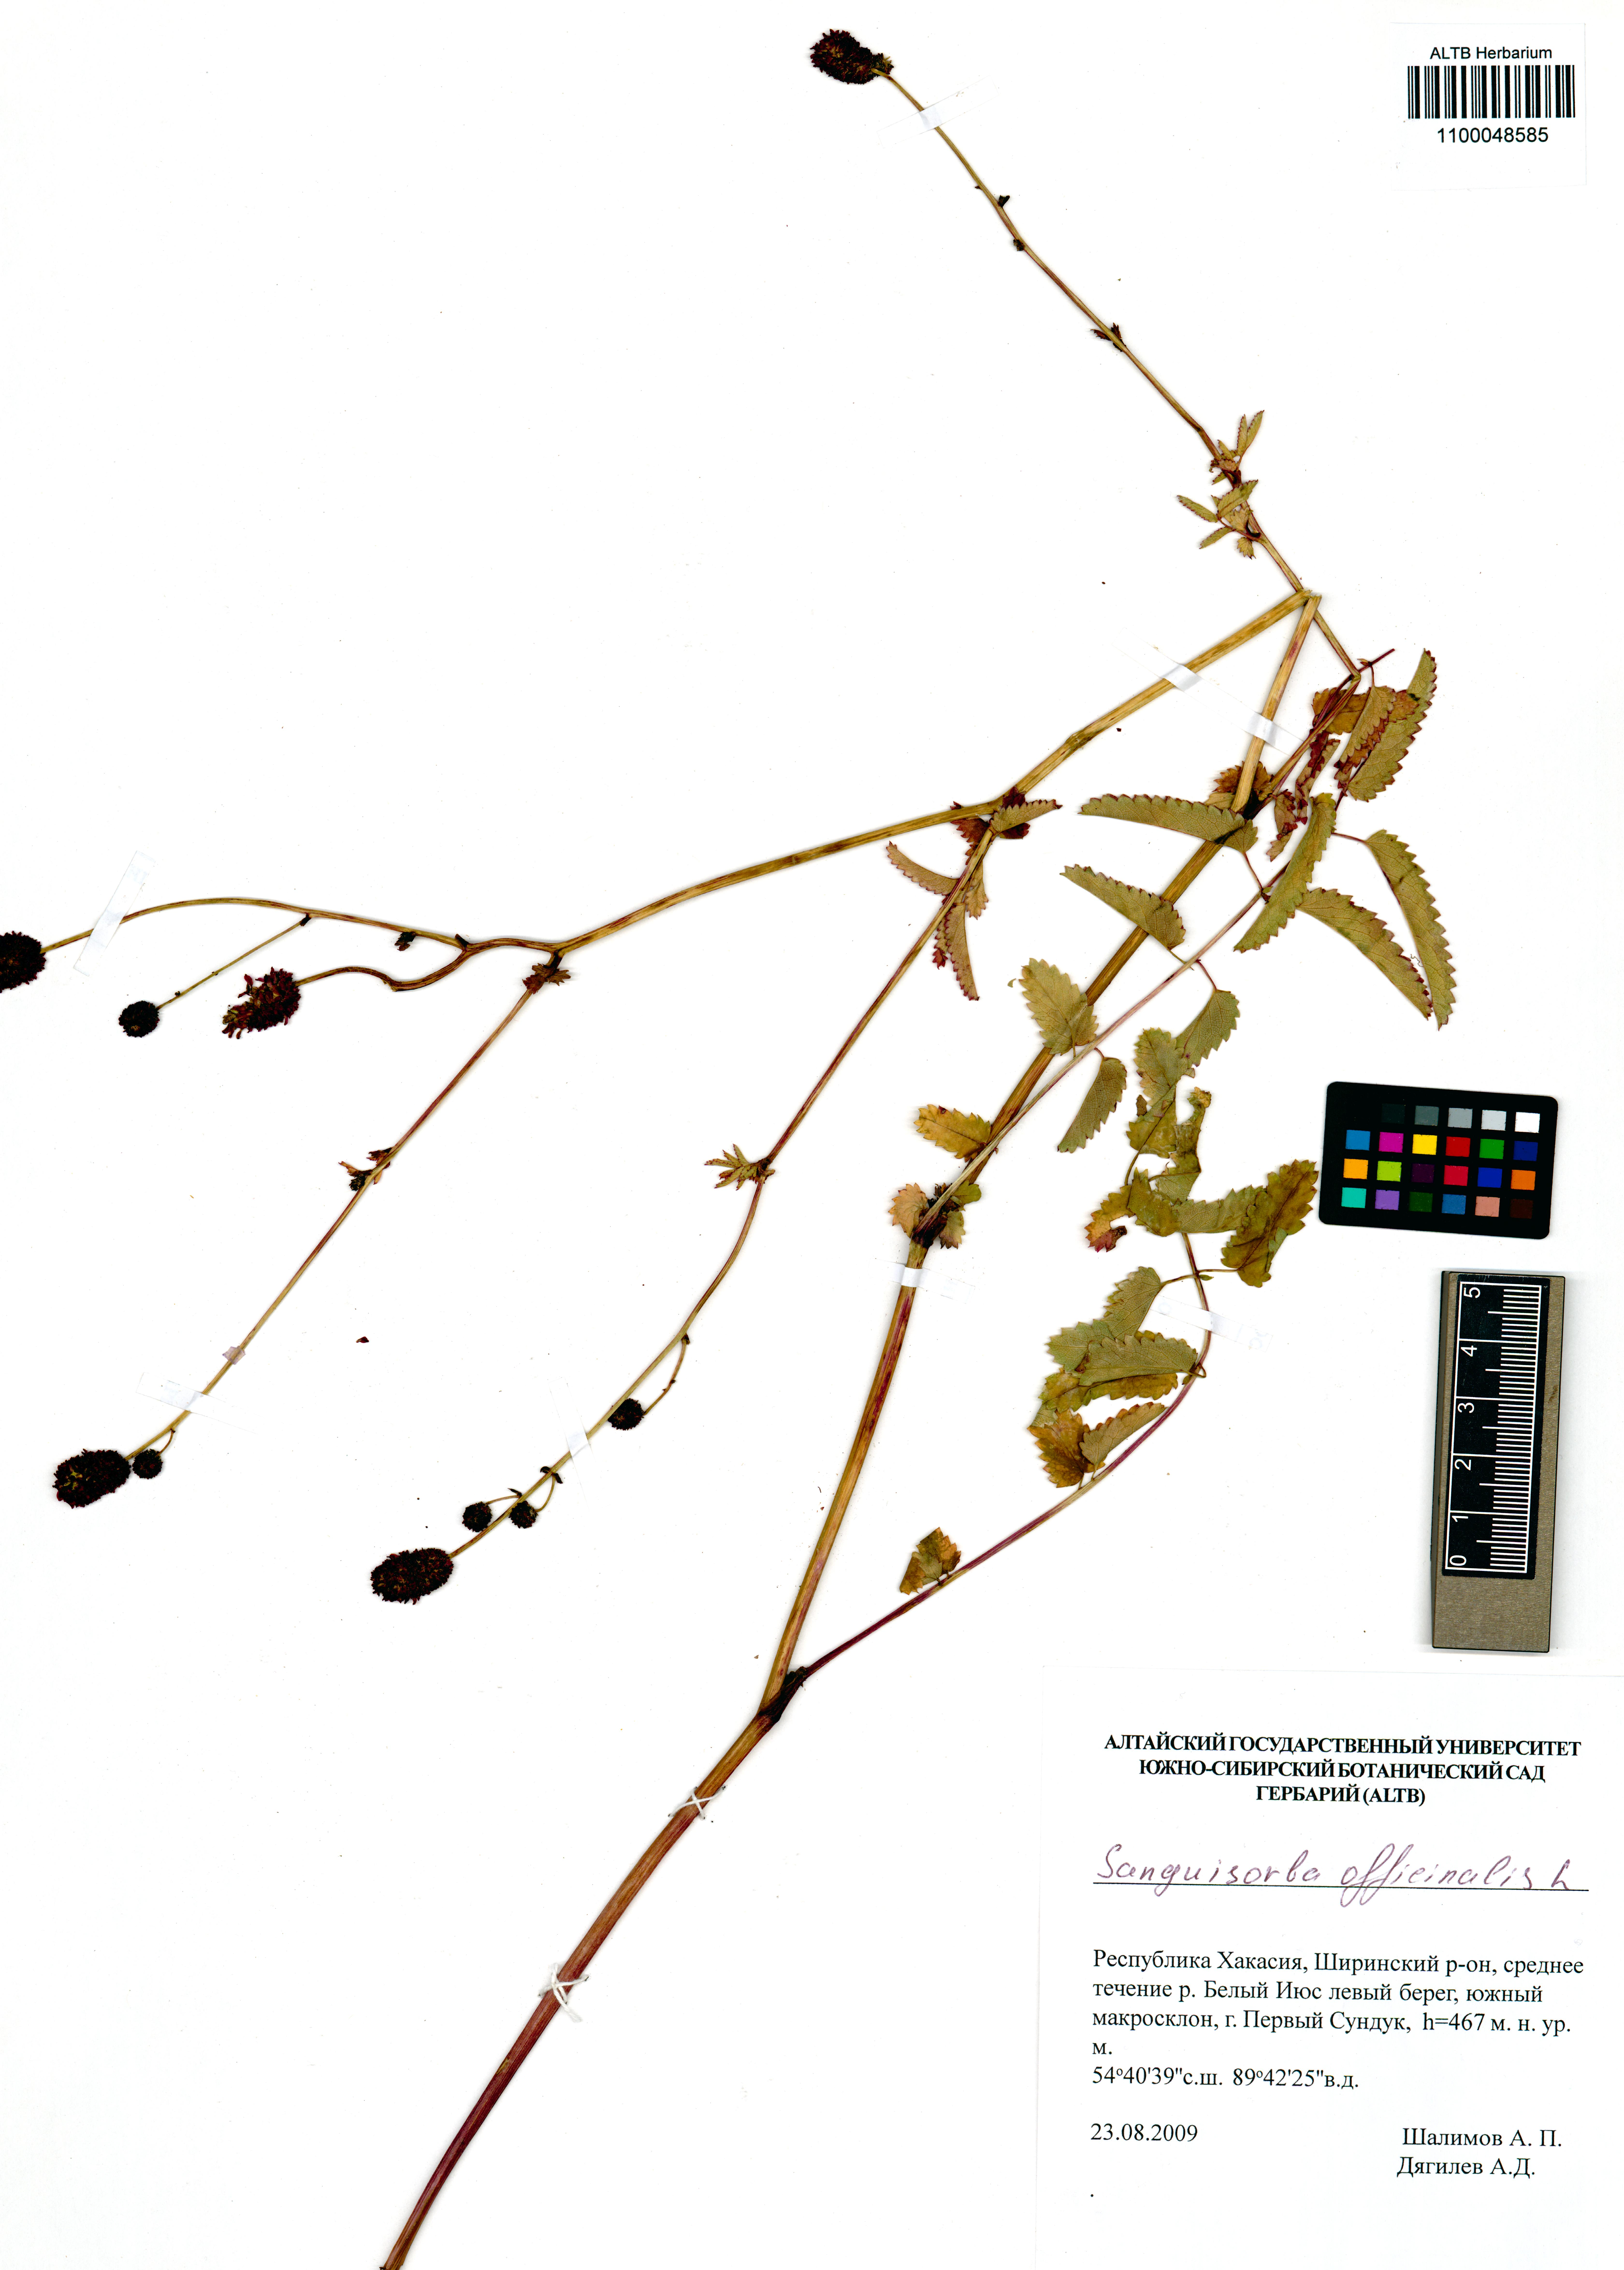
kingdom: Plantae
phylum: Tracheophyta
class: Magnoliopsida
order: Rosales
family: Rosaceae
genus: Sanguisorba
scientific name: Sanguisorba officinalis
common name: Great burnet
